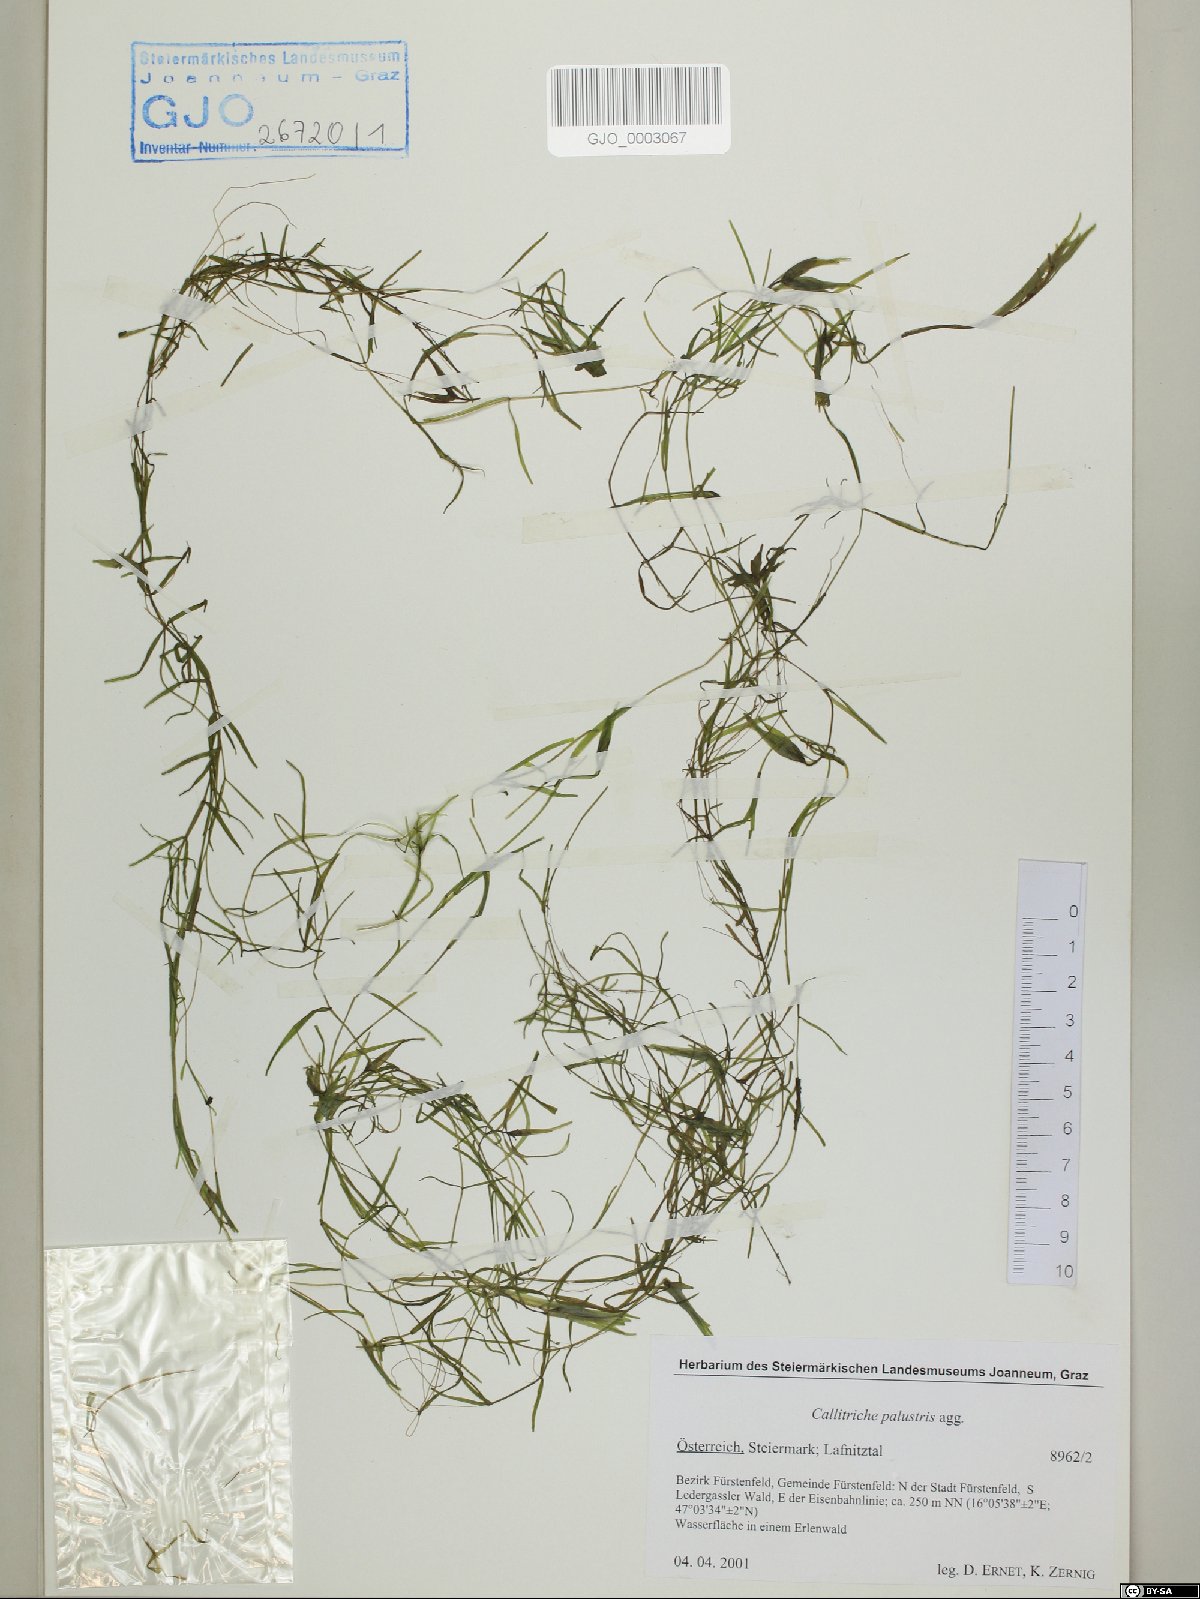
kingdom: Plantae
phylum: Tracheophyta
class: Magnoliopsida
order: Lamiales
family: Plantaginaceae
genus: Callitriche
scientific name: Callitriche palustris
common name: Spring water-starwort
